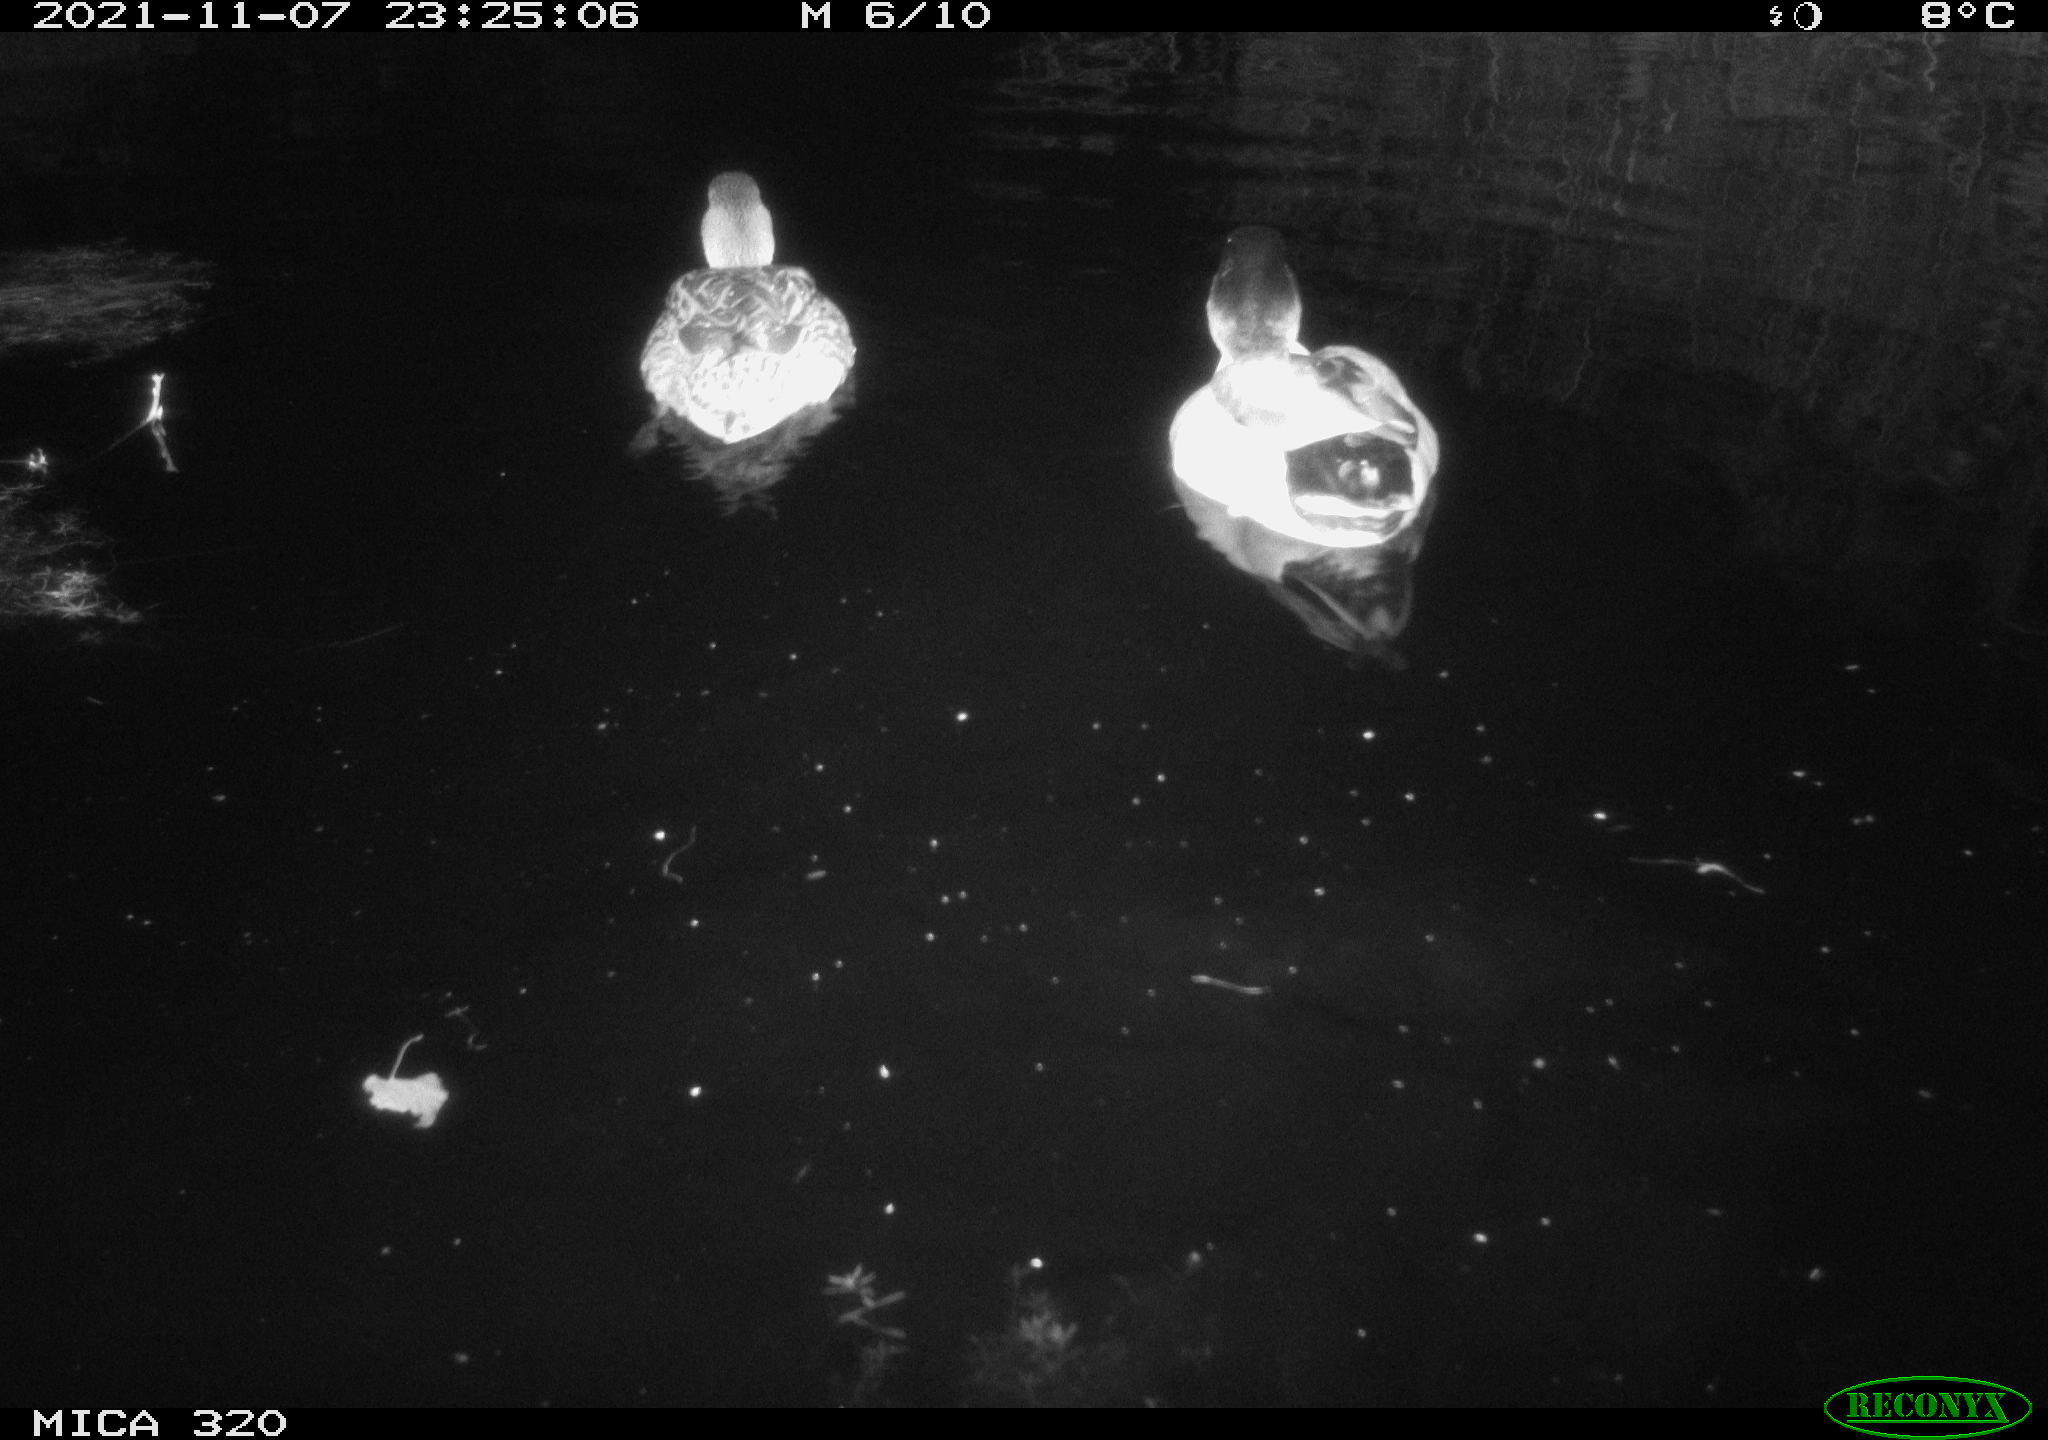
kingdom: Animalia
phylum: Chordata
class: Aves
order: Anseriformes
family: Anatidae
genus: Anas
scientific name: Anas platyrhynchos
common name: Mallard
